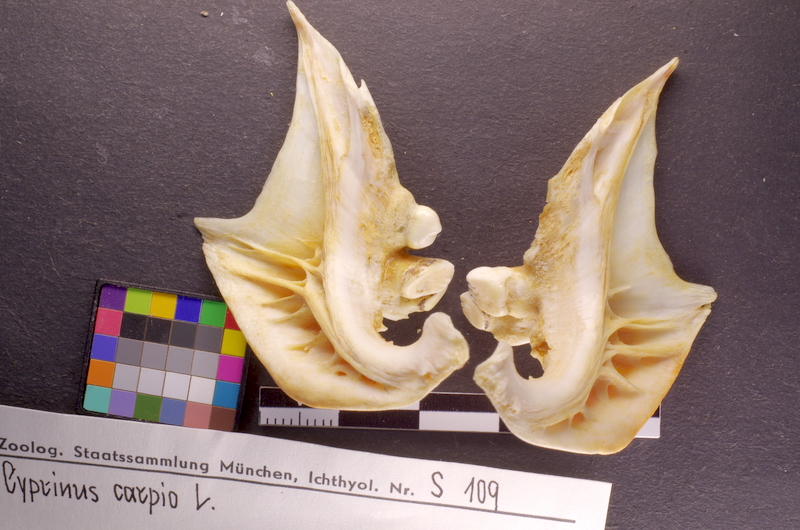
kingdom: Animalia
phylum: Chordata
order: Cypriniformes
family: Cyprinidae
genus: Cyprinus
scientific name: Cyprinus carpio
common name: Common carp
